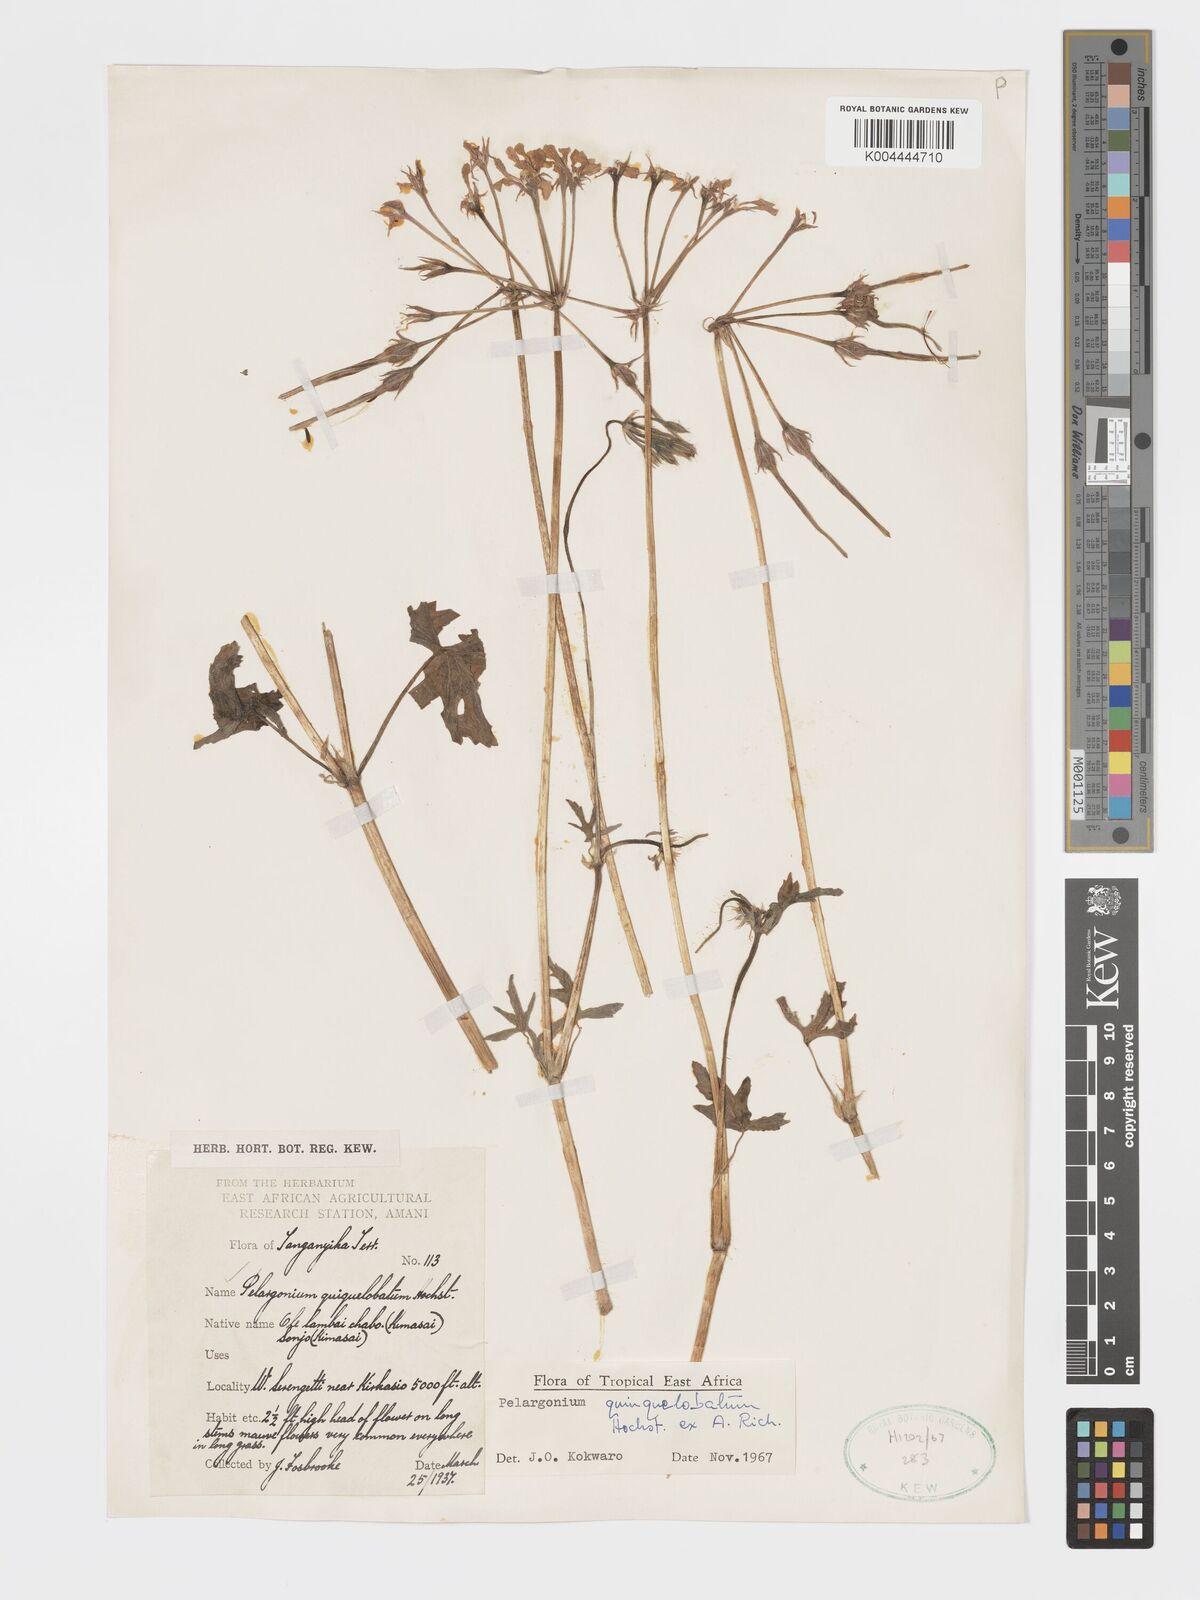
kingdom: Plantae
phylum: Tracheophyta
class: Magnoliopsida
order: Geraniales
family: Geraniaceae
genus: Pelargonium
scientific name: Pelargonium quinquelobatum
